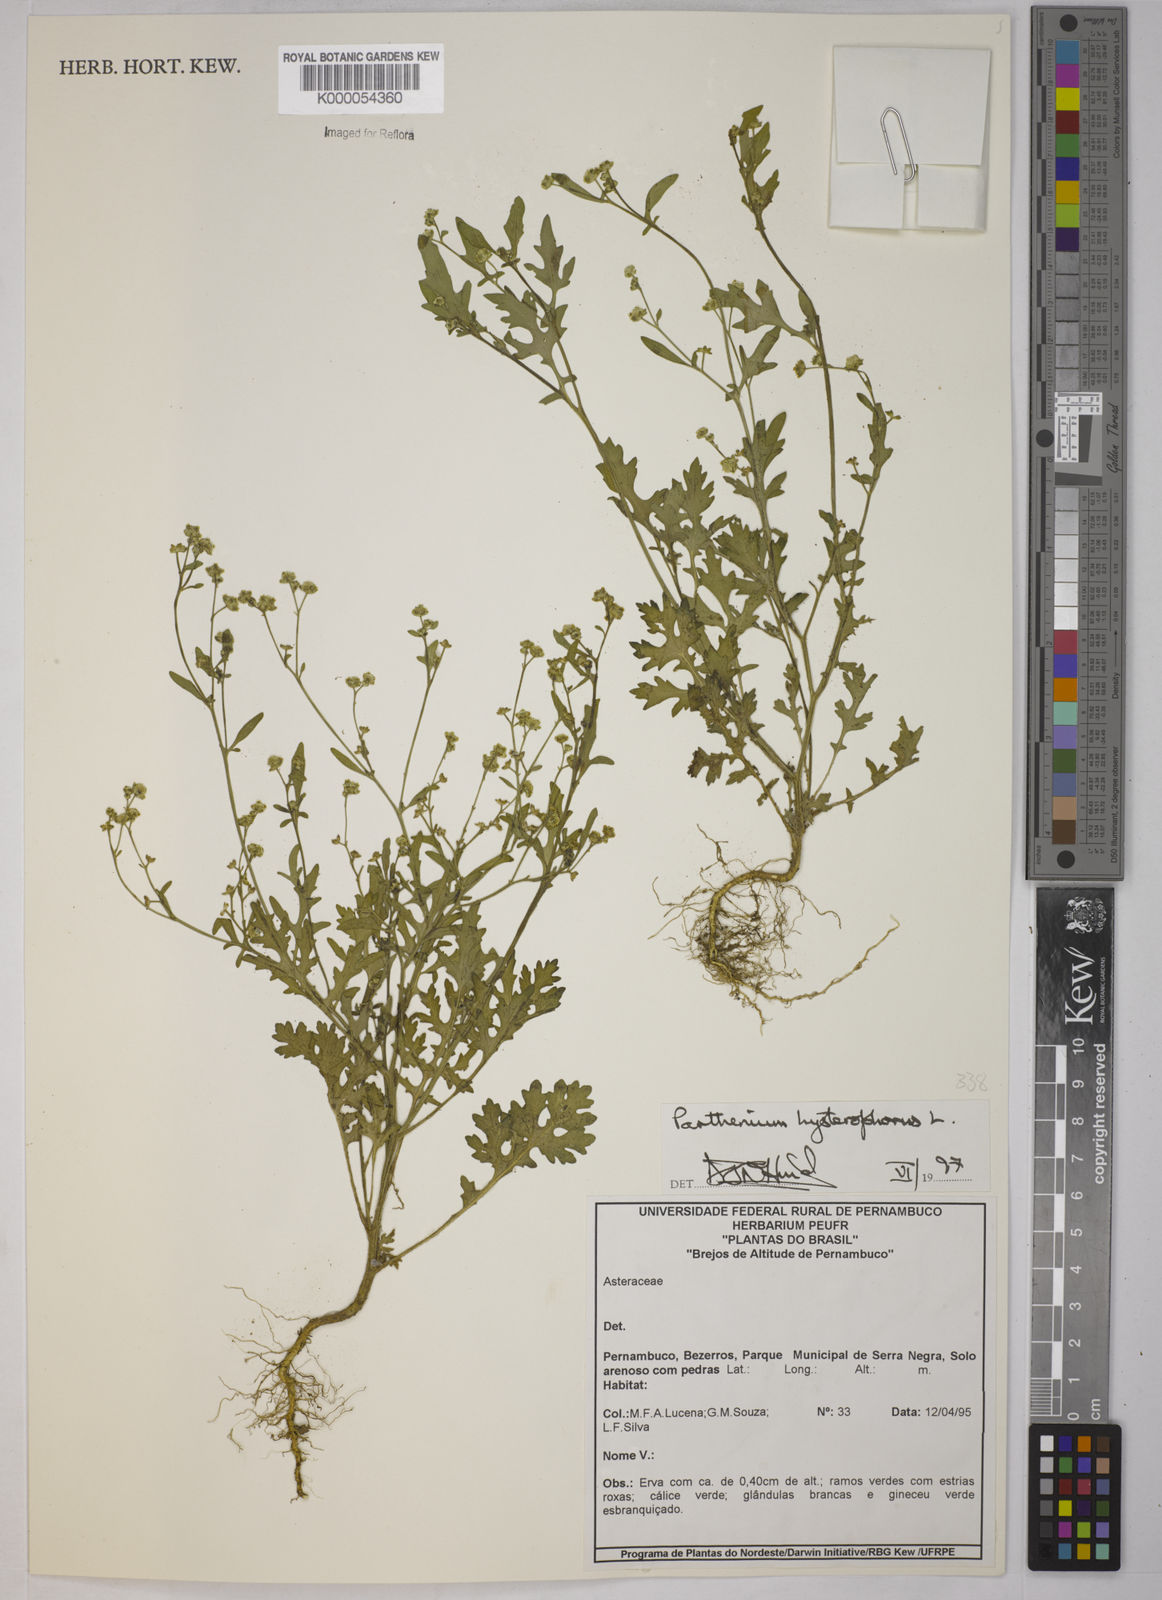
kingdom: Plantae
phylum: Tracheophyta
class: Magnoliopsida
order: Asterales
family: Asteraceae
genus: Parthenium
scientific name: Parthenium hysterophorus
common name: Santa maria feverfew
